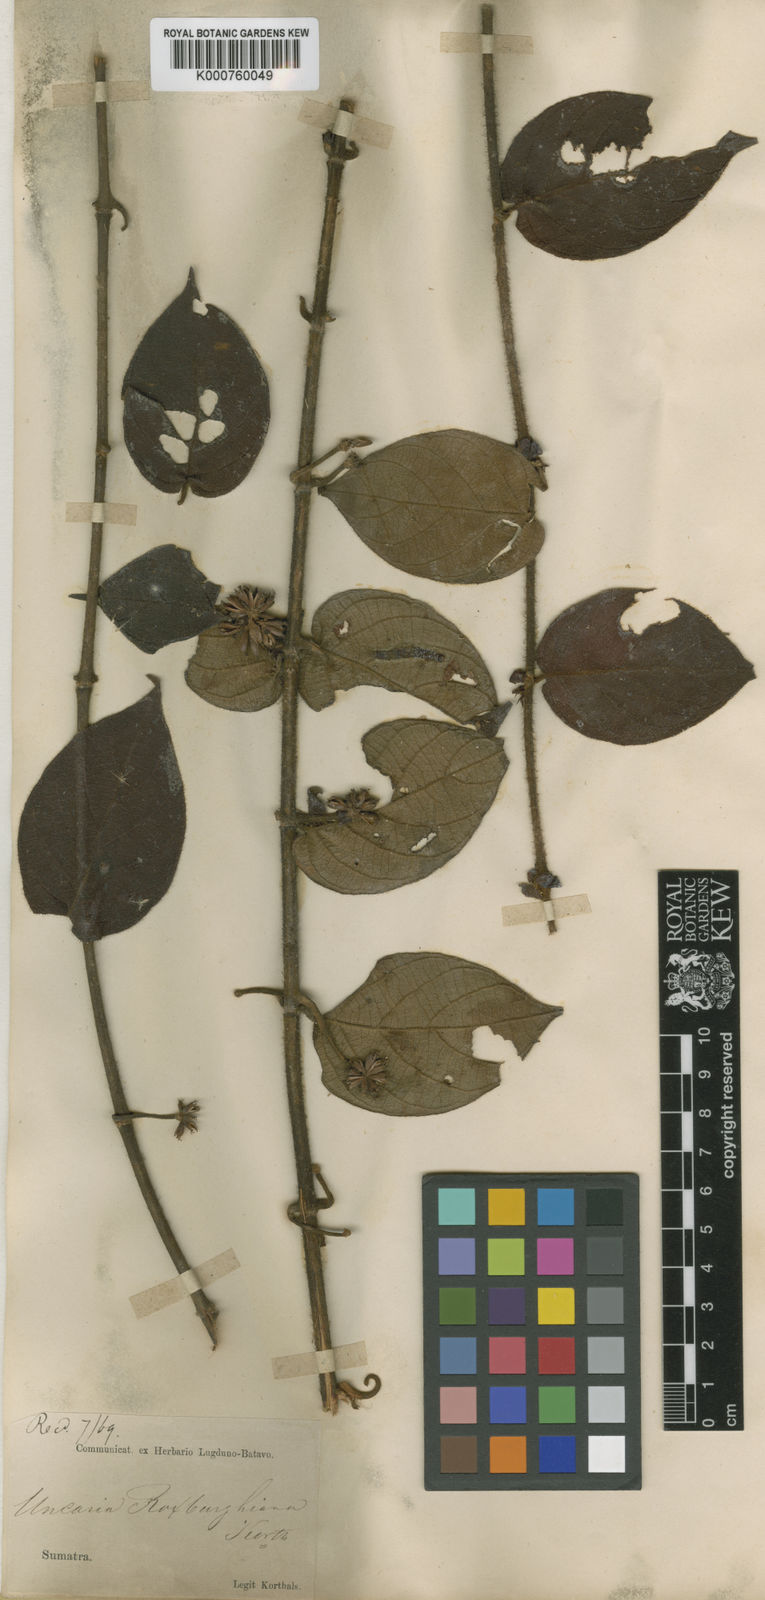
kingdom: Plantae
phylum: Tracheophyta
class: Magnoliopsida
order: Gentianales
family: Rubiaceae
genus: Uncaria
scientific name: Uncaria roxburghiana
